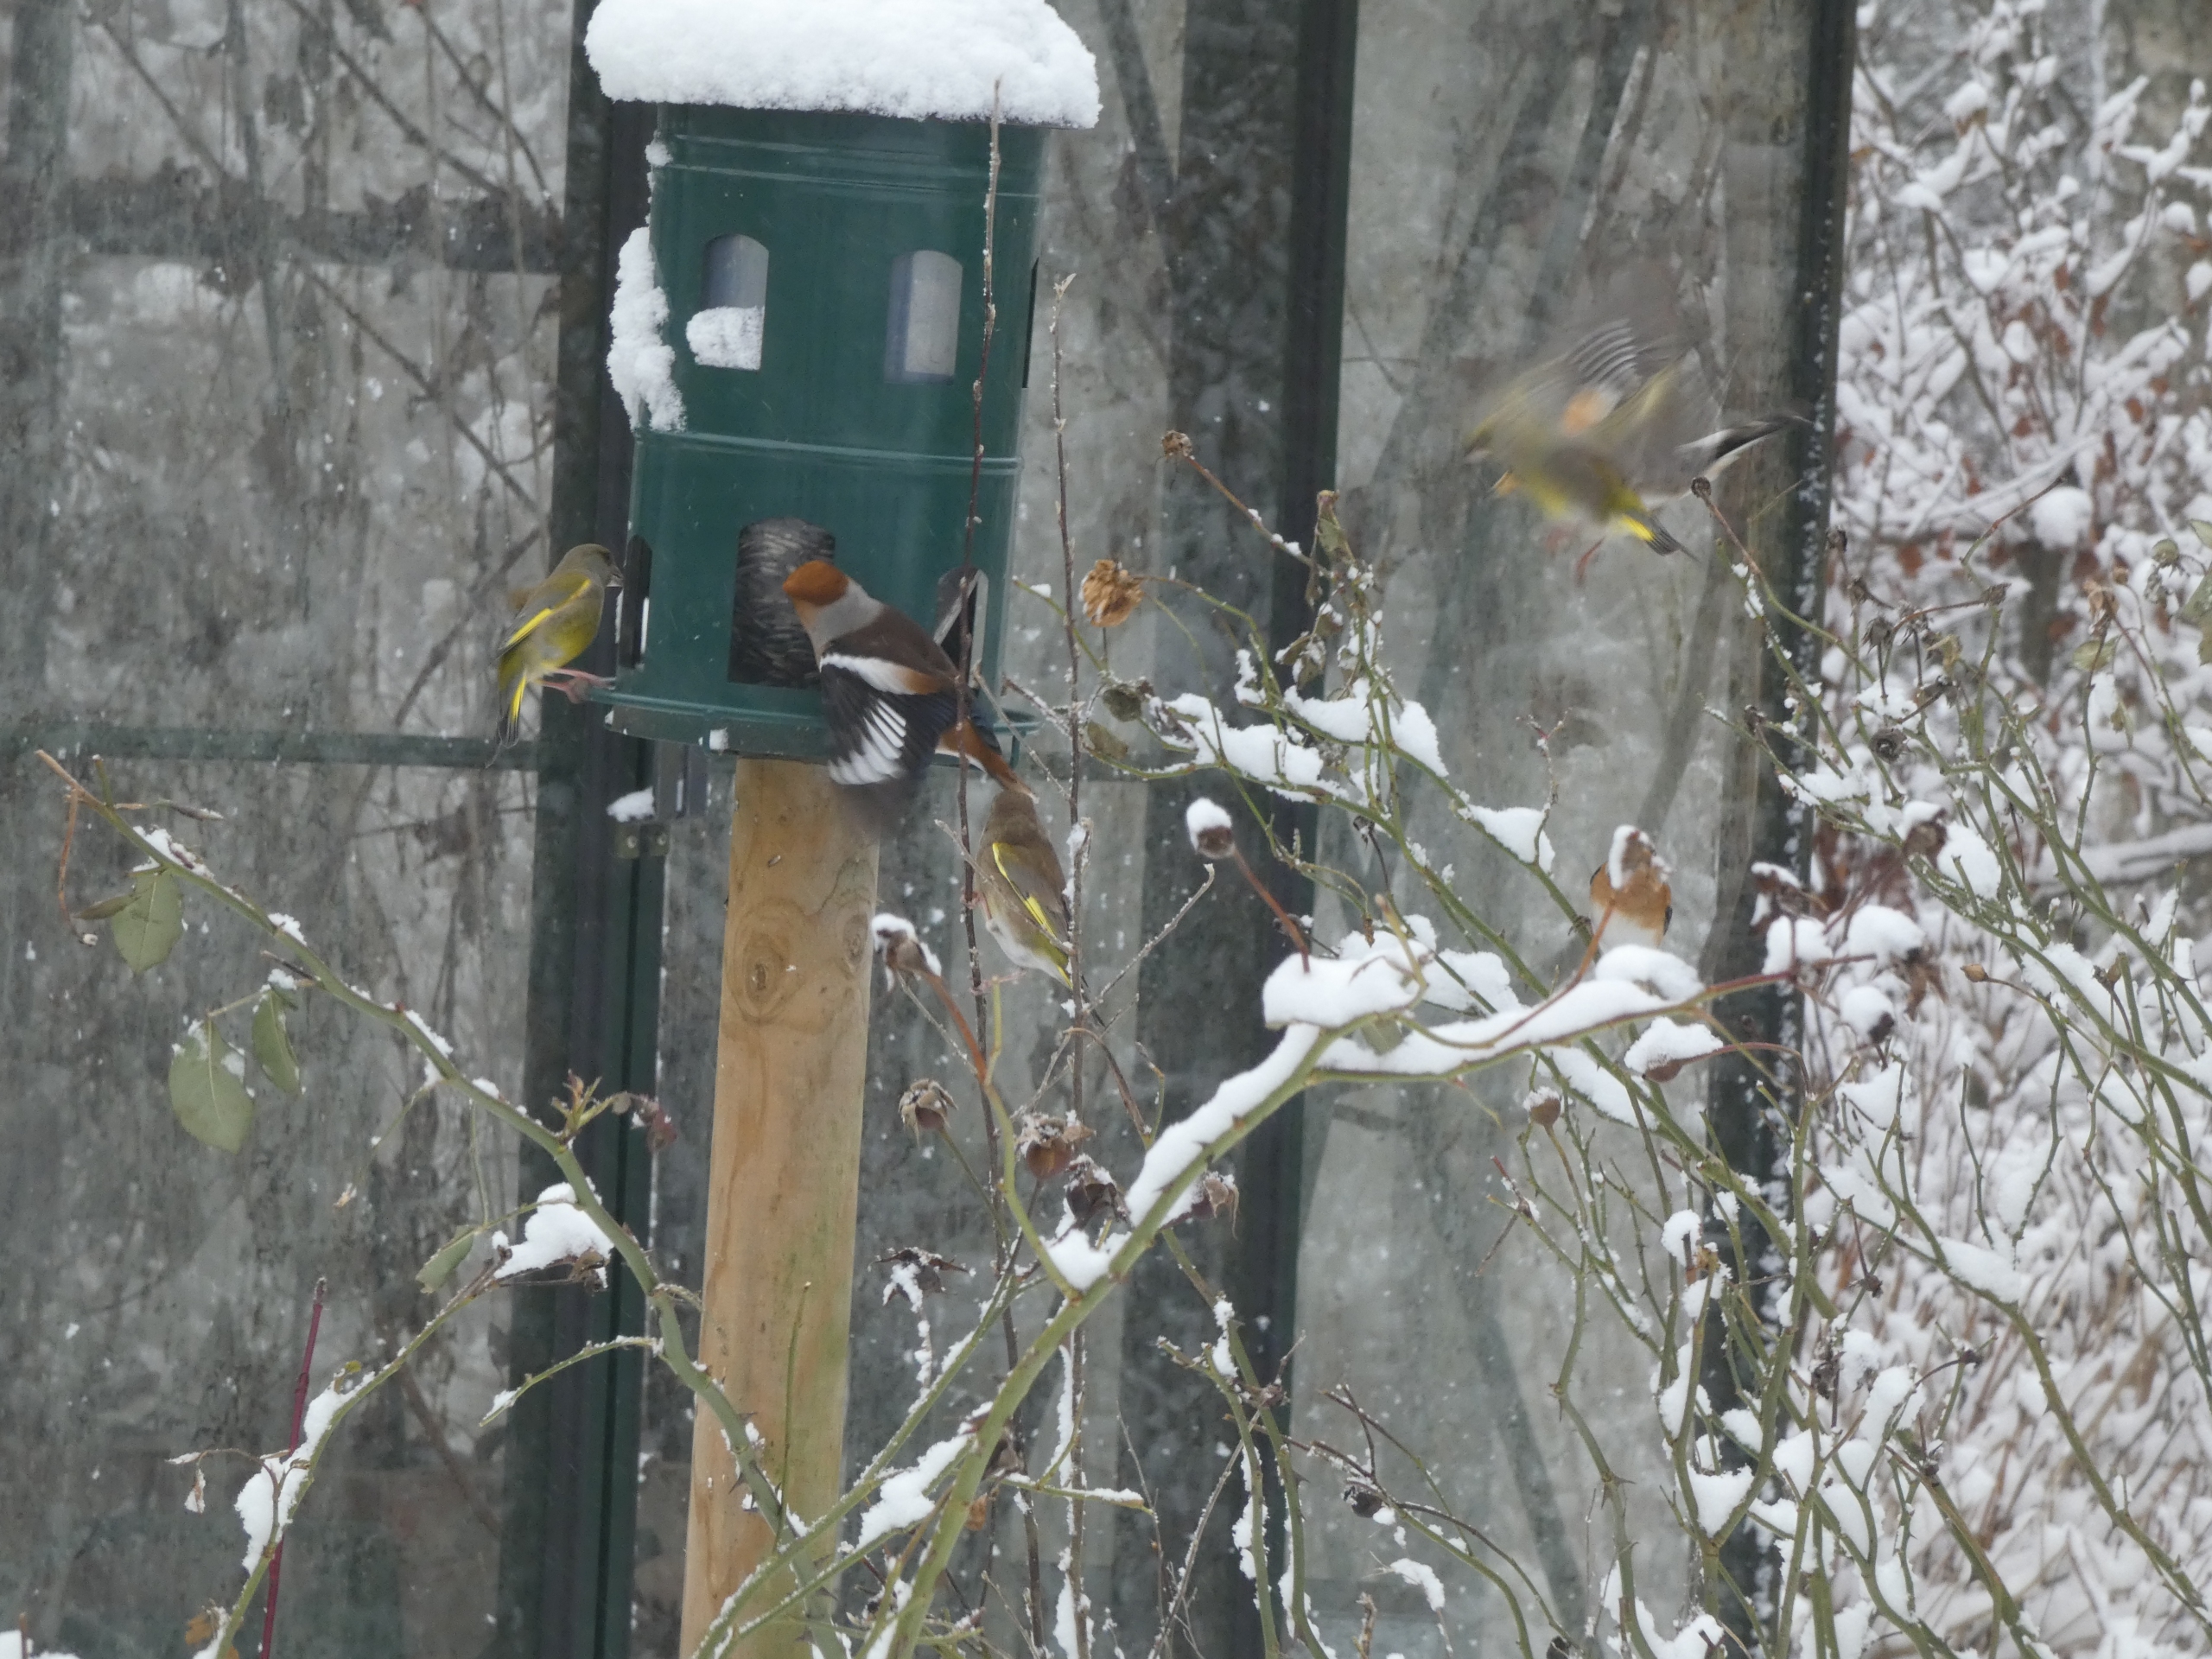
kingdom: Animalia
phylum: Chordata
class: Aves
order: Passeriformes
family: Fringillidae
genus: Coccothraustes
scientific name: Coccothraustes coccothraustes
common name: Kernebider
